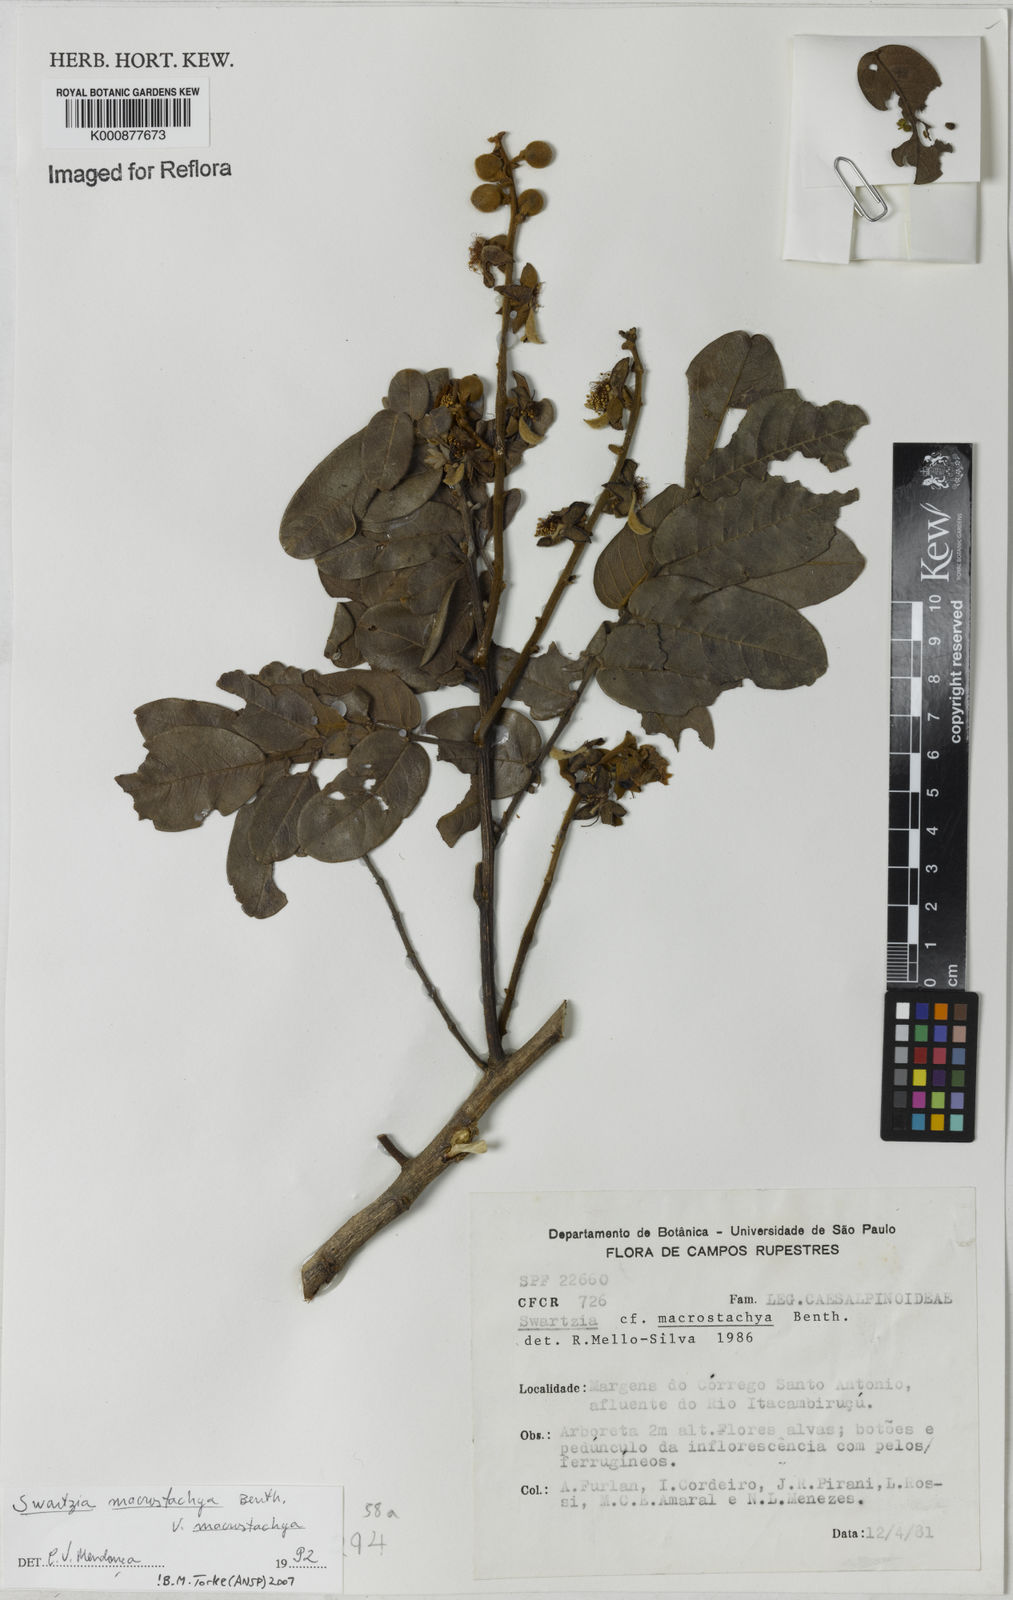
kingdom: Plantae
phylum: Tracheophyta
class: Magnoliopsida
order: Fabales
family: Fabaceae
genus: Swartzia
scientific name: Swartzia macrostachya
